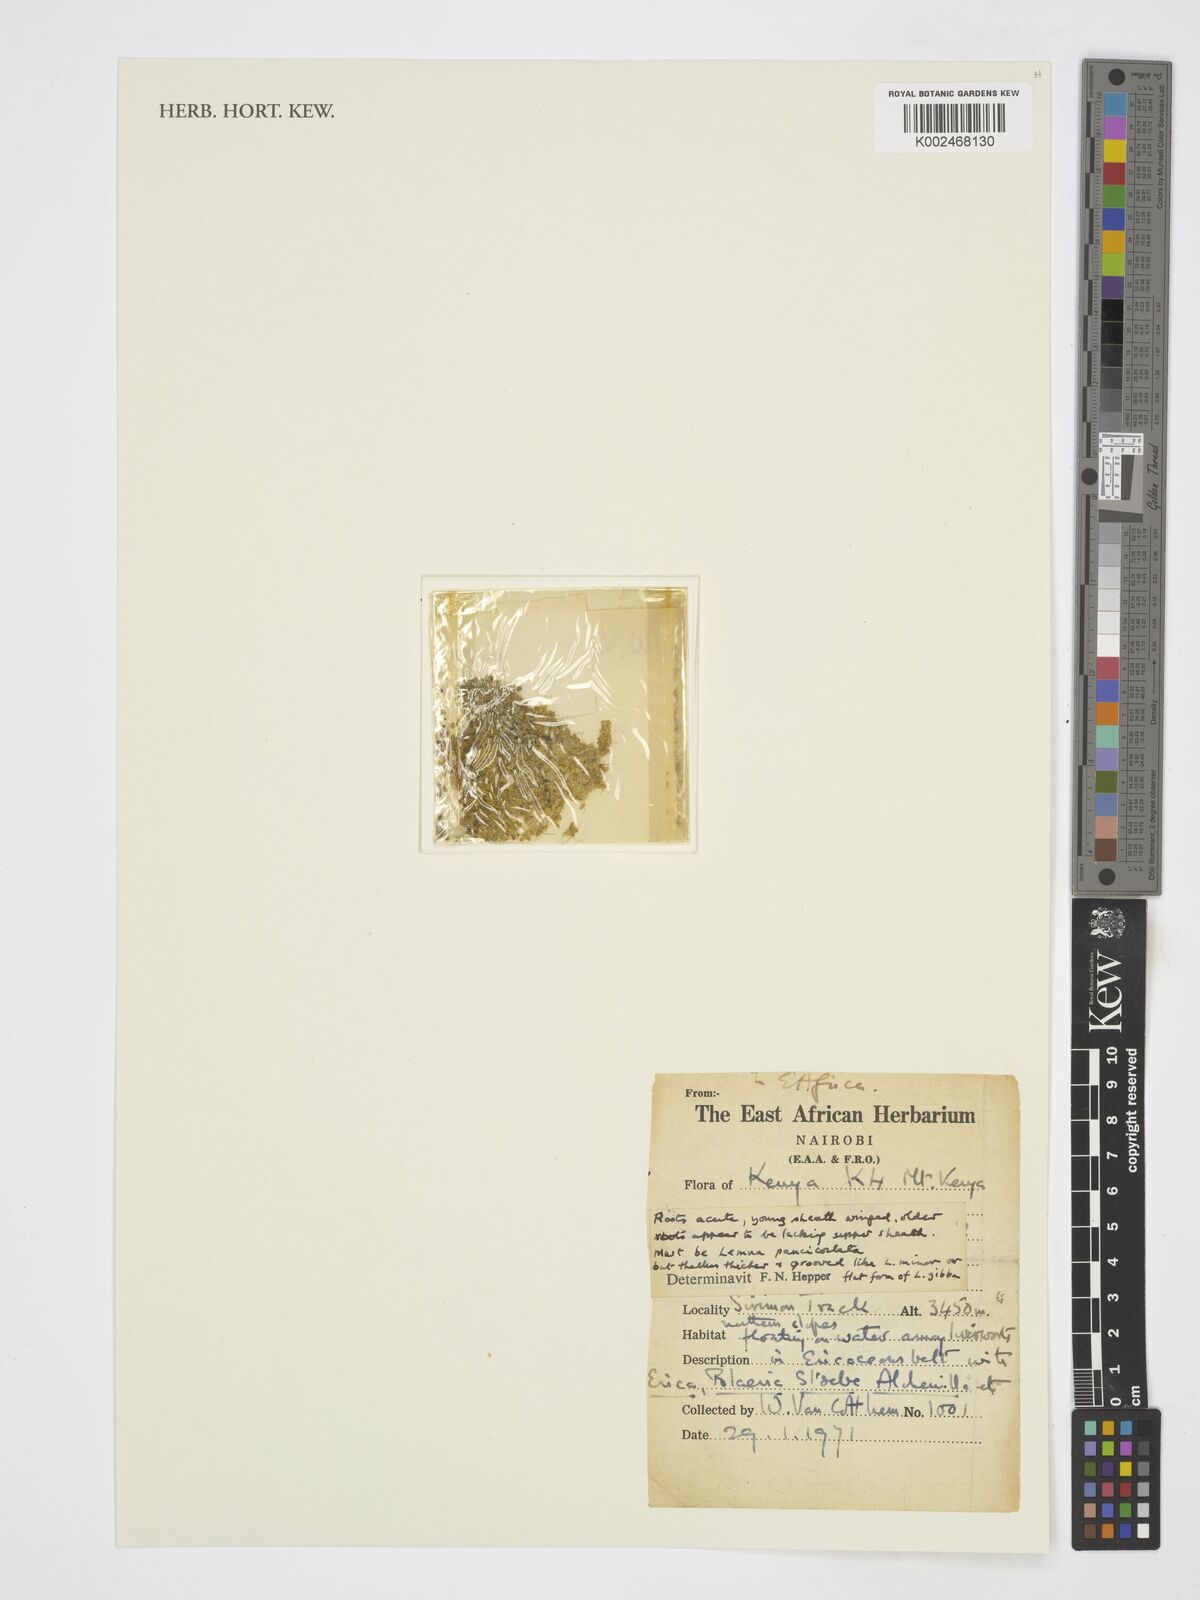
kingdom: Plantae
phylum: Tracheophyta
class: Liliopsida
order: Alismatales
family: Araceae
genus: Lemna
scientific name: Lemna
